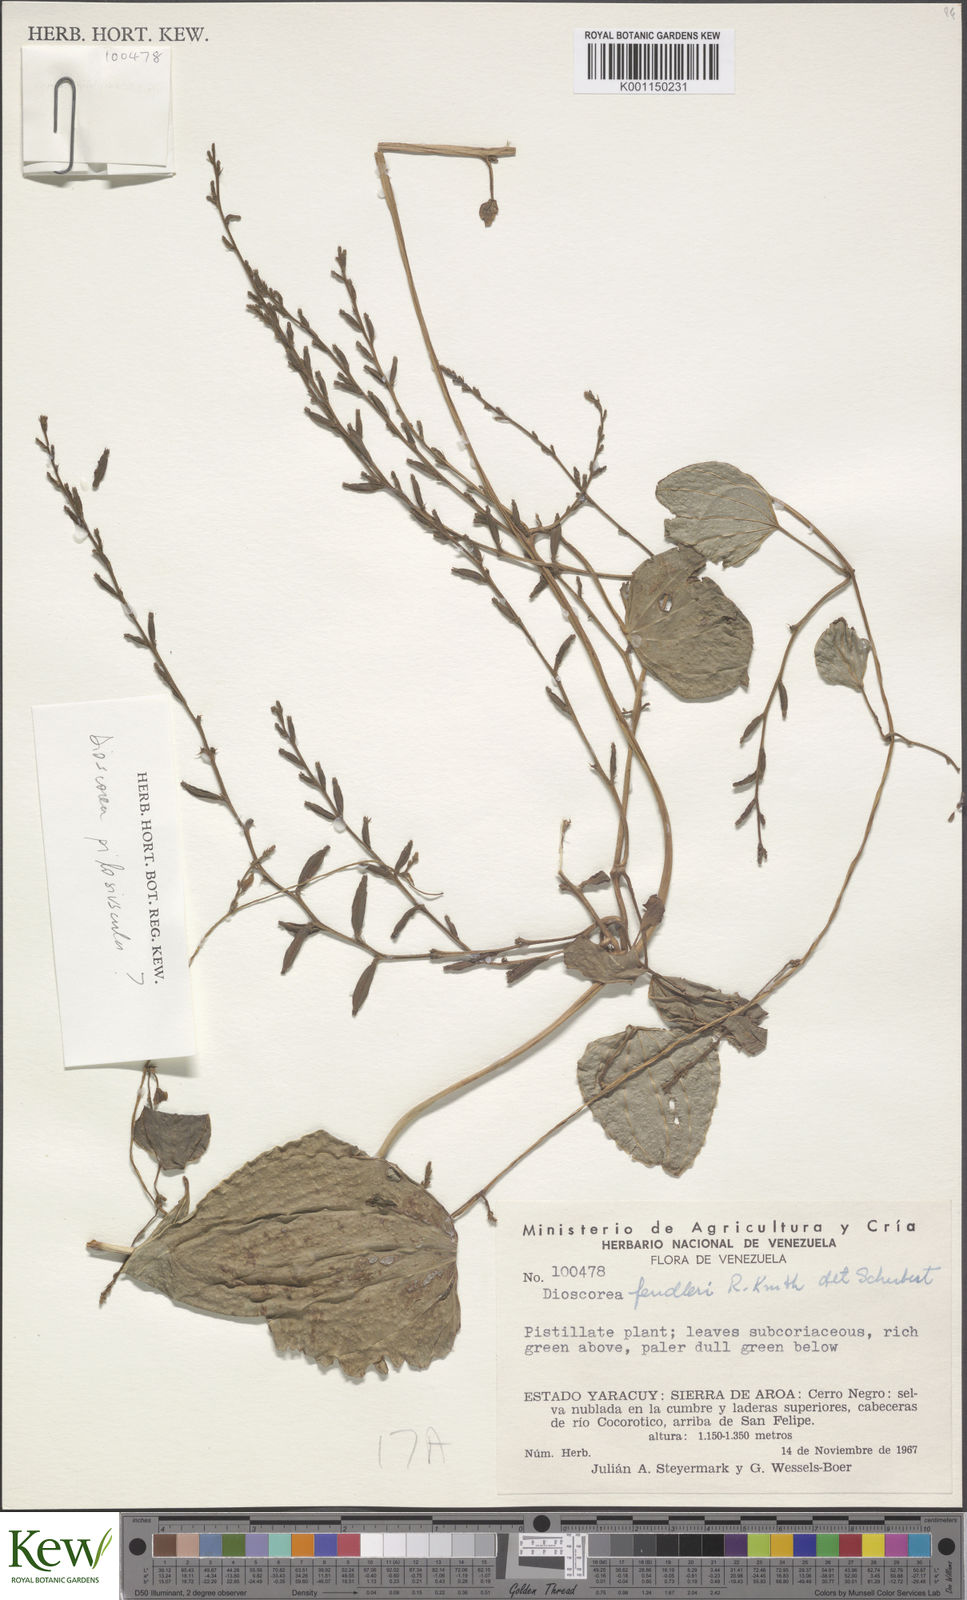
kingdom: Plantae
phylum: Tracheophyta
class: Liliopsida
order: Dioscoreales
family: Dioscoreaceae
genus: Dioscorea
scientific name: Dioscorea fendleri
